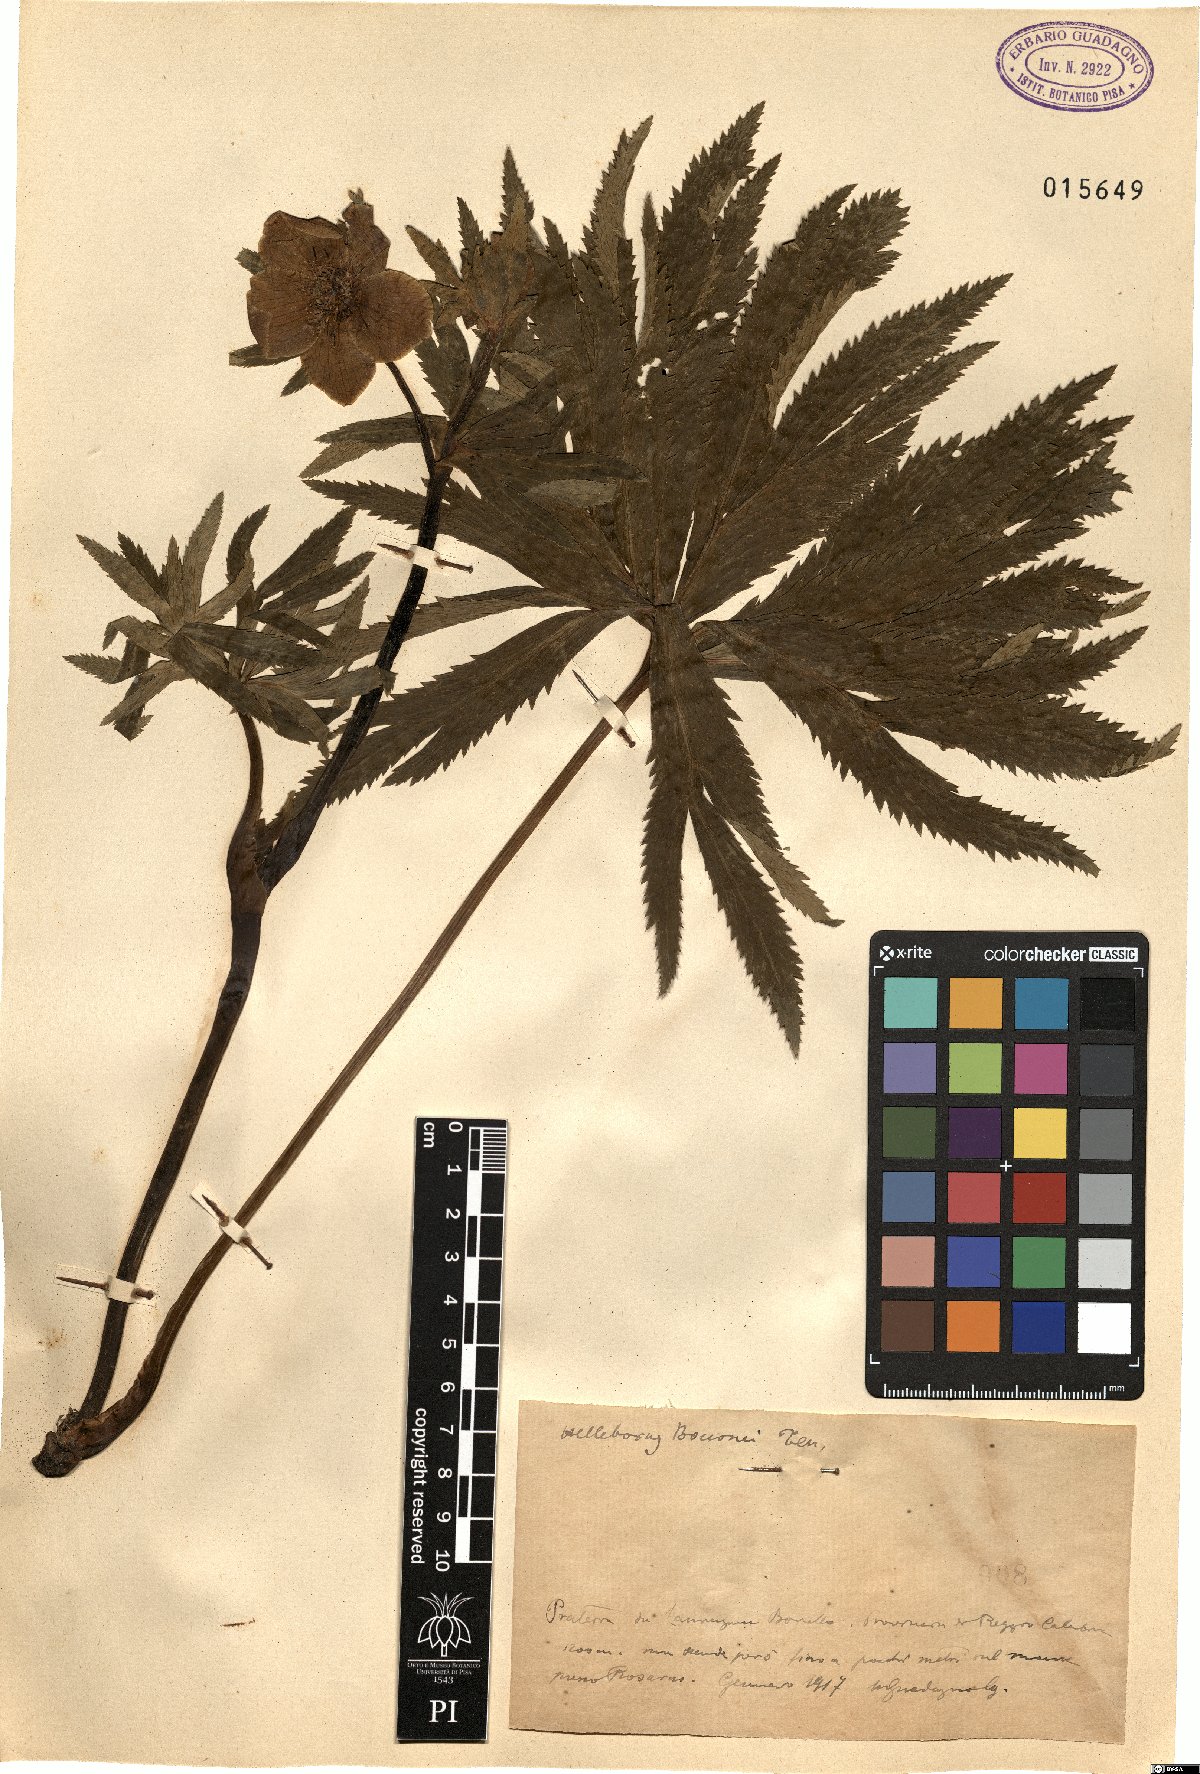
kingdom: Plantae
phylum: Tracheophyta
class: Magnoliopsida
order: Ranunculales
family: Ranunculaceae
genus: Helleborus
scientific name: Helleborus bocconei
